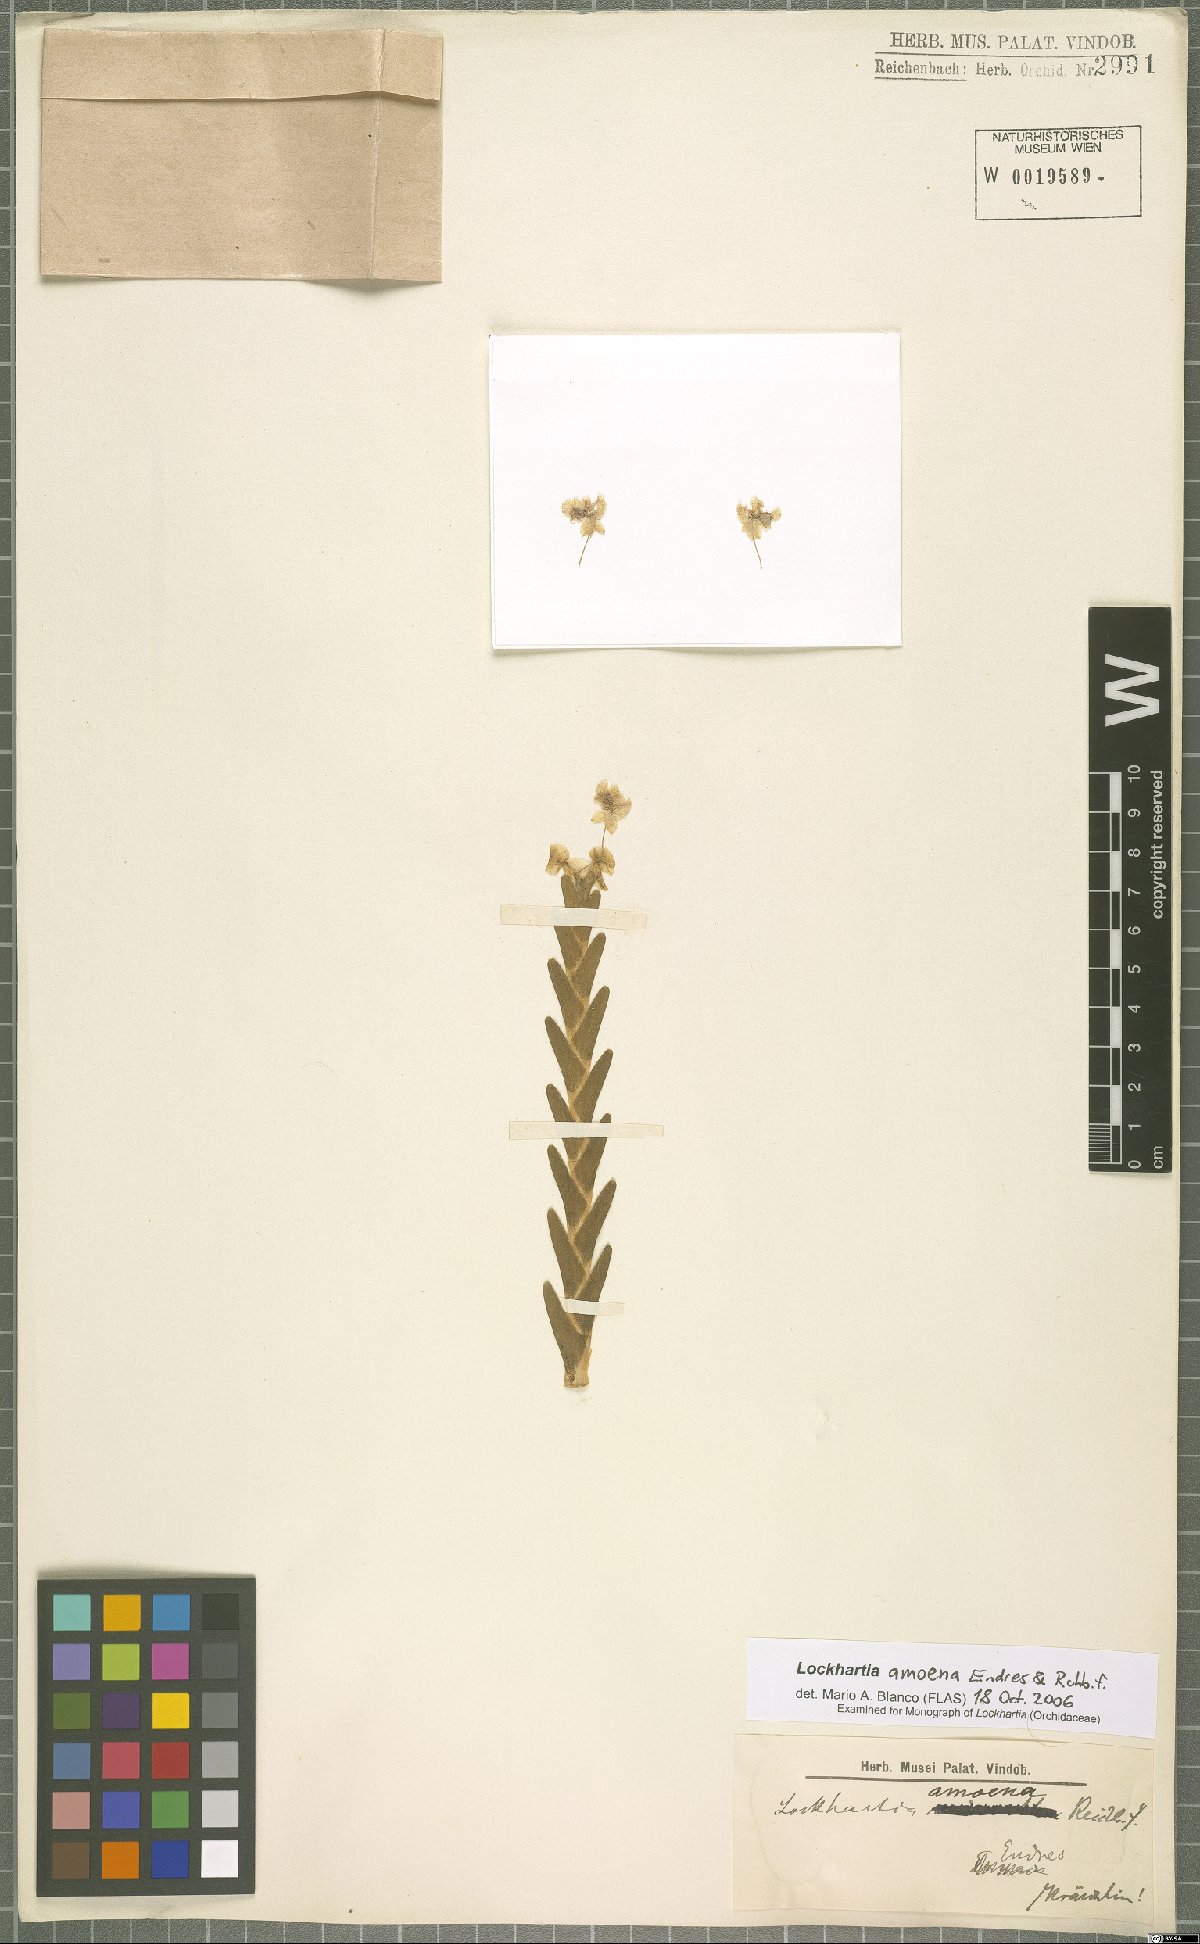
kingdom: Plantae
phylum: Tracheophyta
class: Liliopsida
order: Asparagales
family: Orchidaceae
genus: Lockhartia
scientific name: Lockhartia amoena
